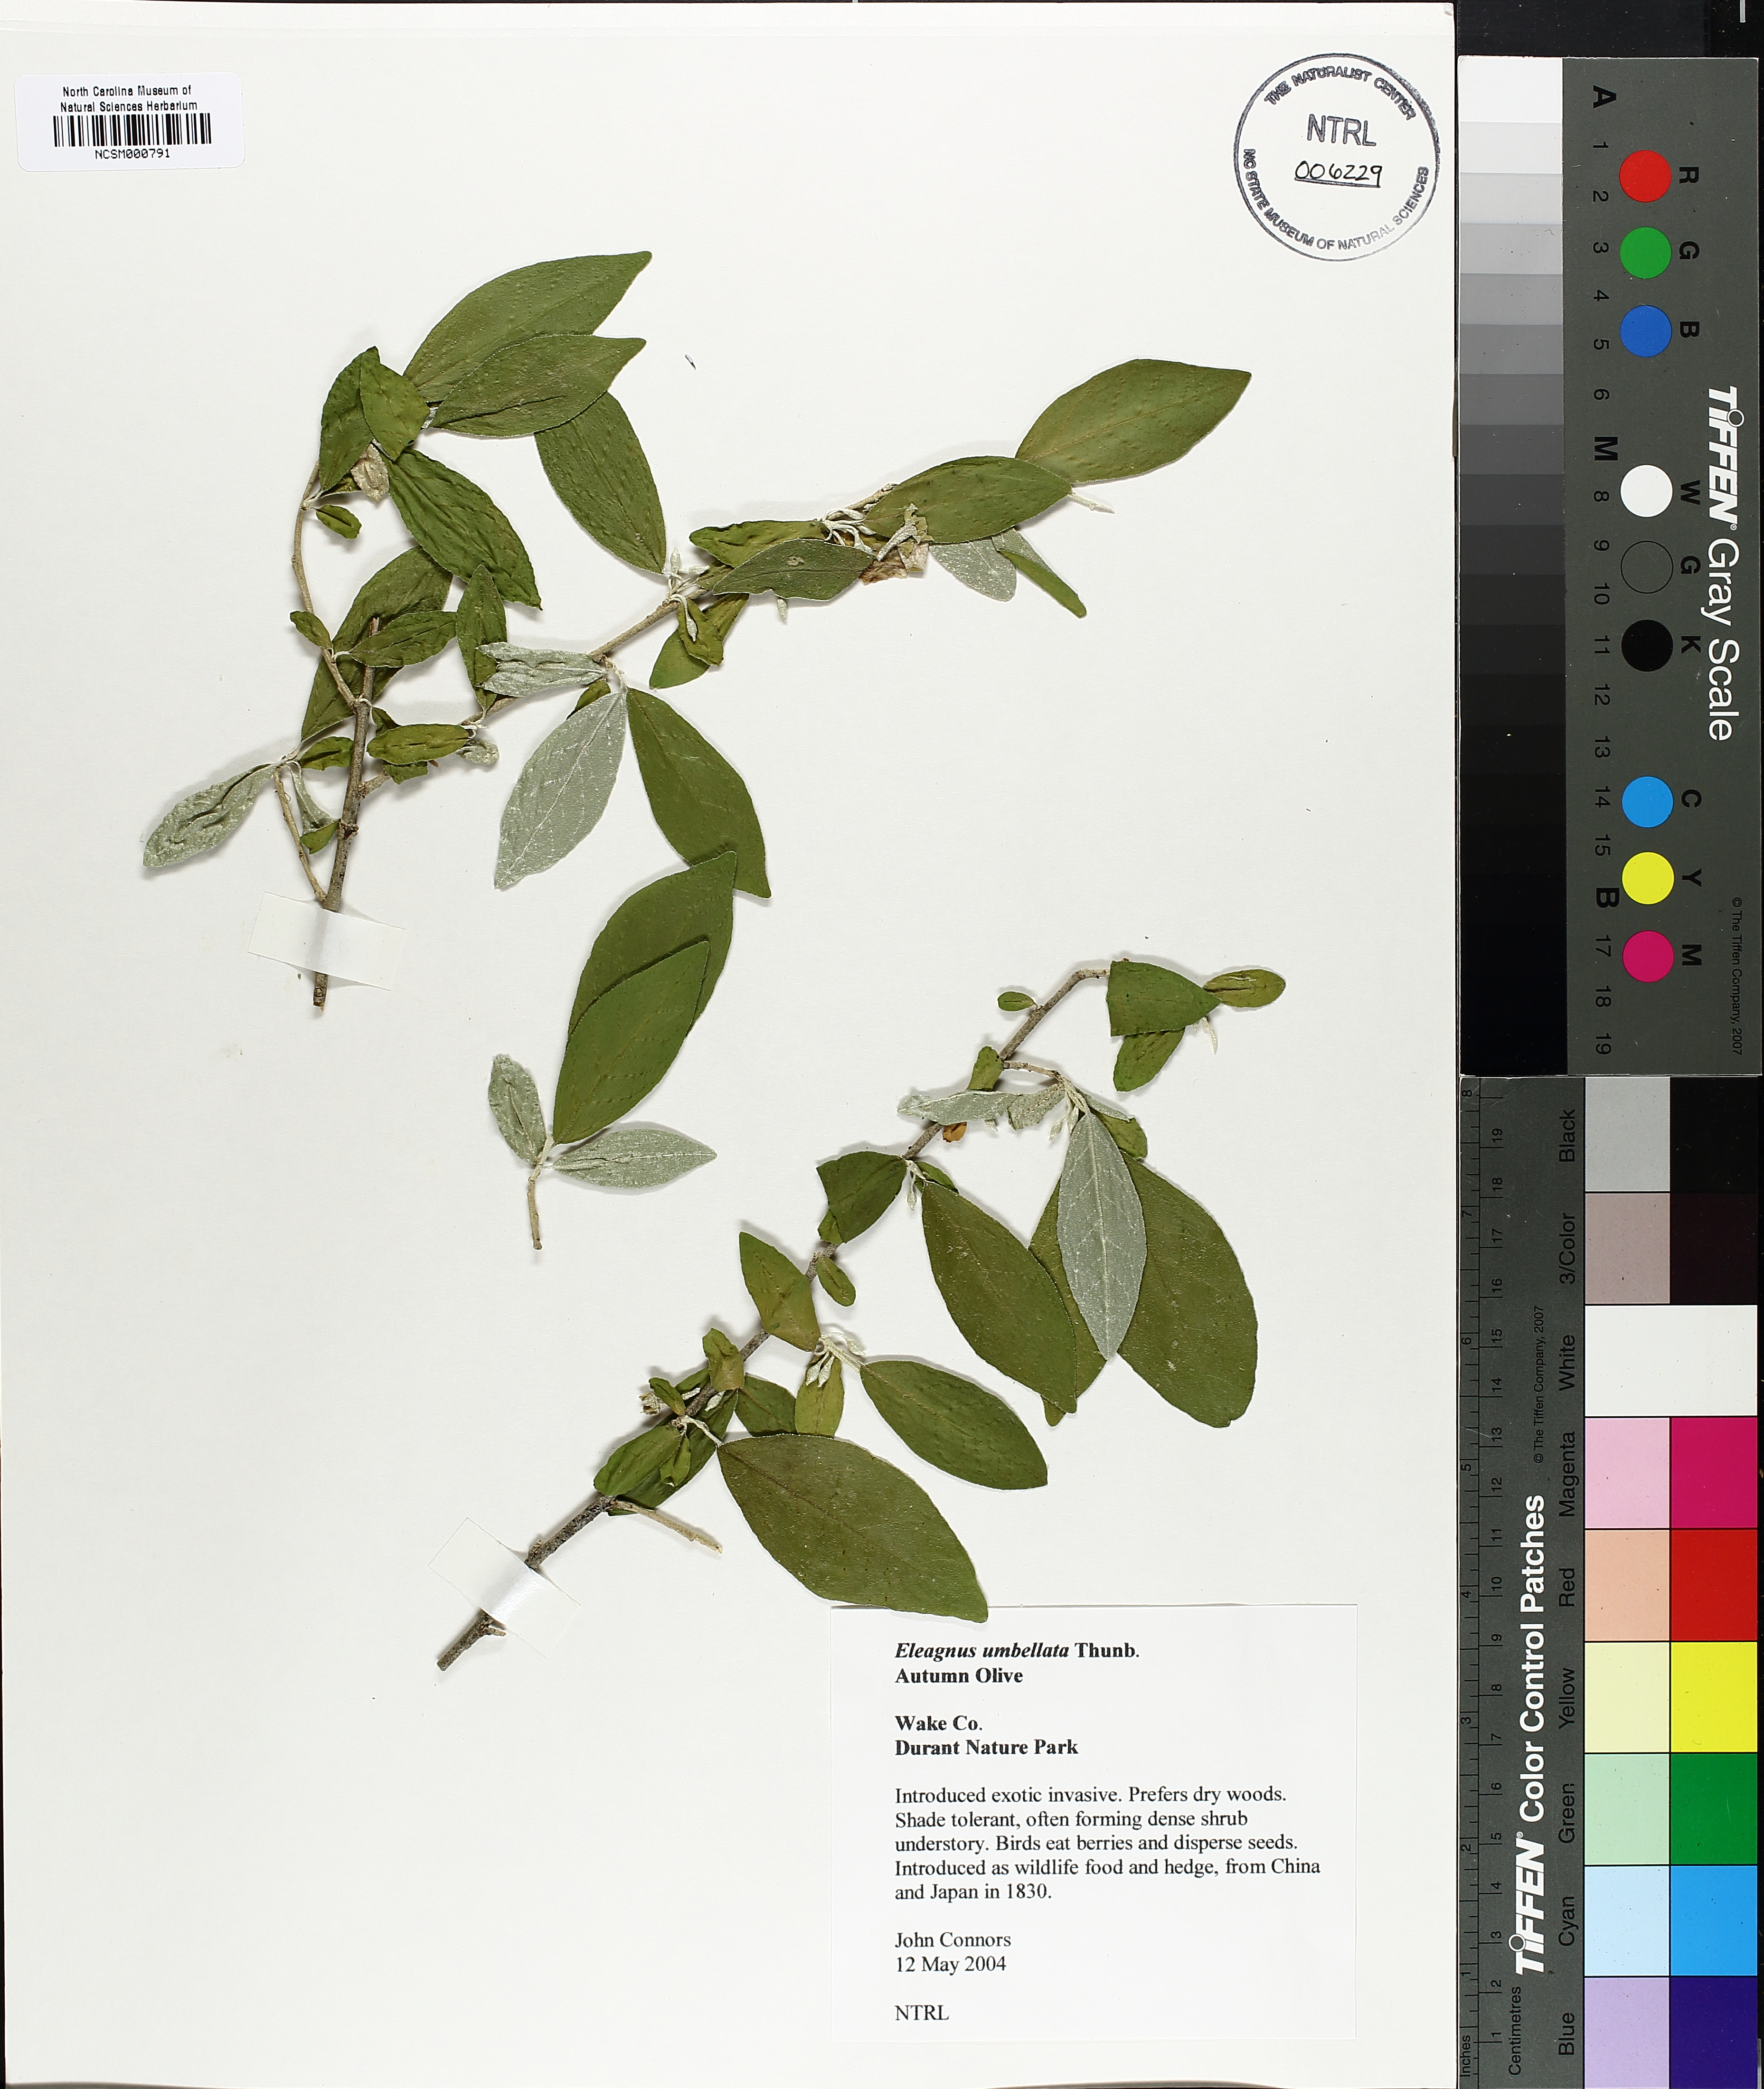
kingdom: Plantae
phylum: Tracheophyta
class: Magnoliopsida
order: Rosales
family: Elaeagnaceae
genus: Elaeagnus
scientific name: Elaeagnus umbellata
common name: Autumn olive
